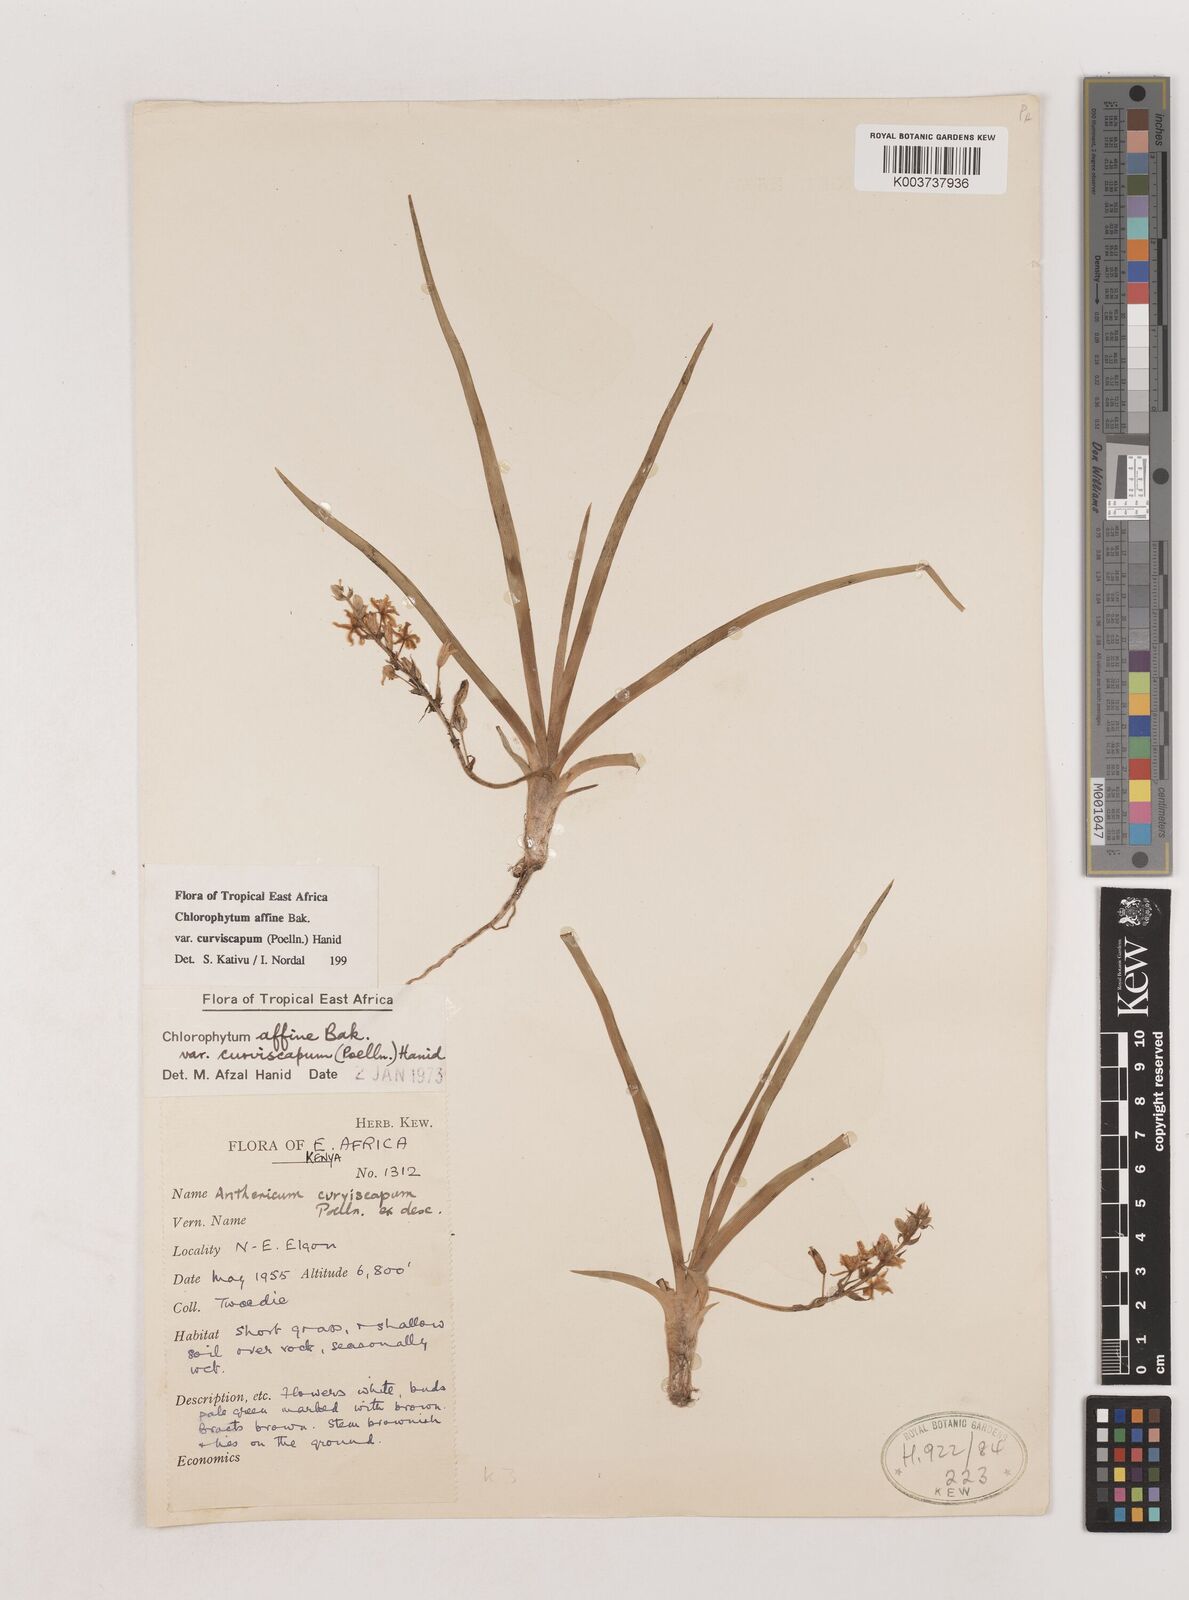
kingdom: Plantae
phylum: Tracheophyta
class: Liliopsida
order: Asparagales
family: Asparagaceae
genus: Chlorophytum
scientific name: Chlorophytum tordense
